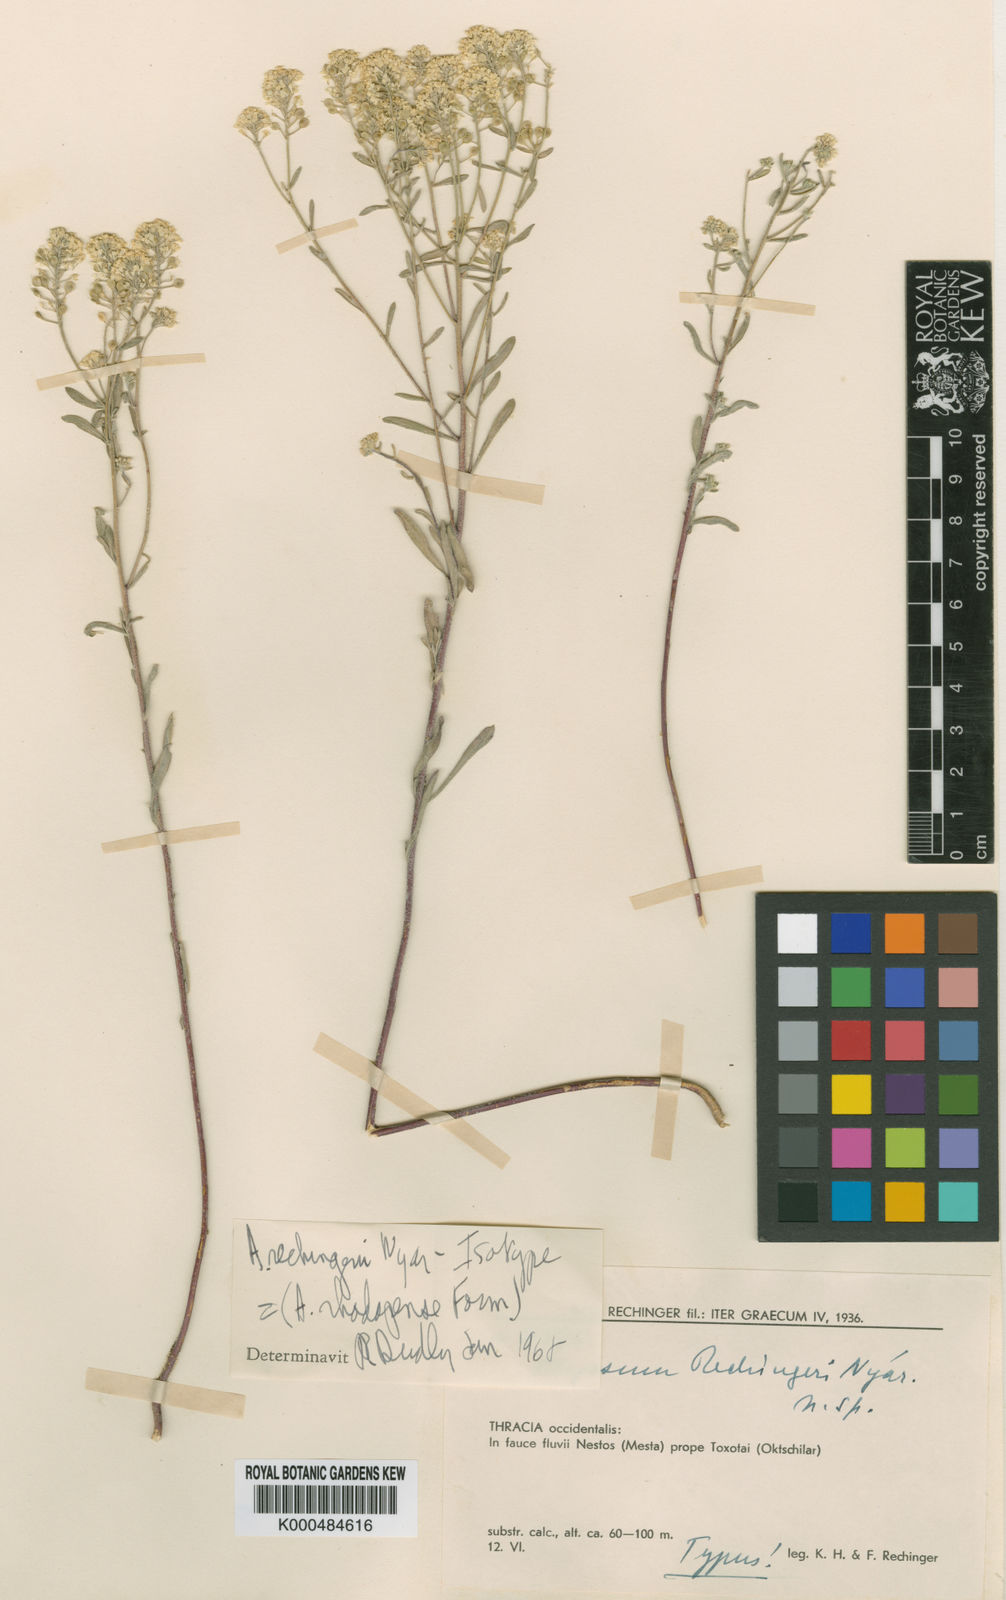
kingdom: Plantae
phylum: Tracheophyta
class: Magnoliopsida
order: Brassicales
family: Brassicaceae
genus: Odontarrhena
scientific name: Odontarrhena corymbosoidea
